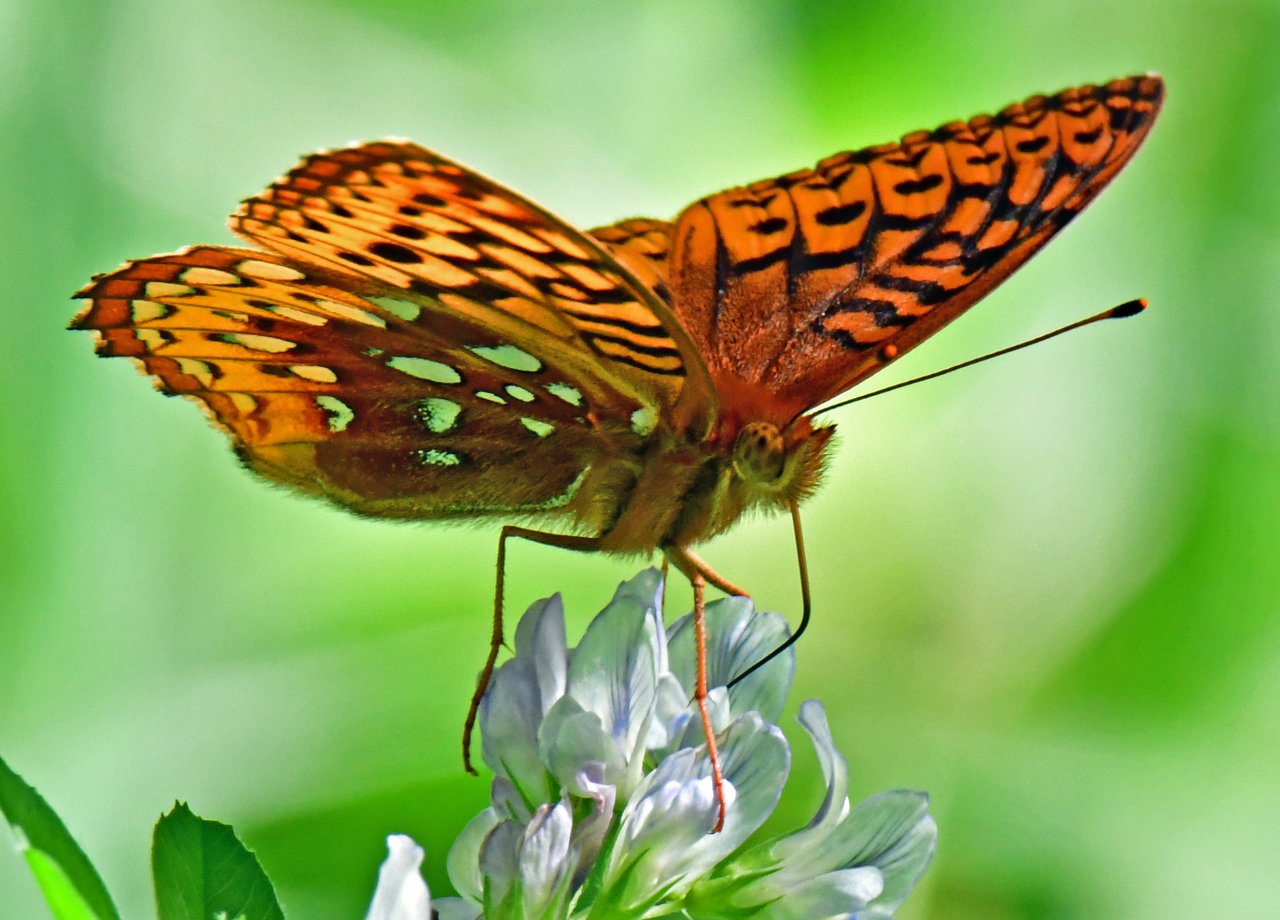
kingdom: Animalia
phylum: Arthropoda
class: Insecta
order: Lepidoptera
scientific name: Lepidoptera
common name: Butterflies
